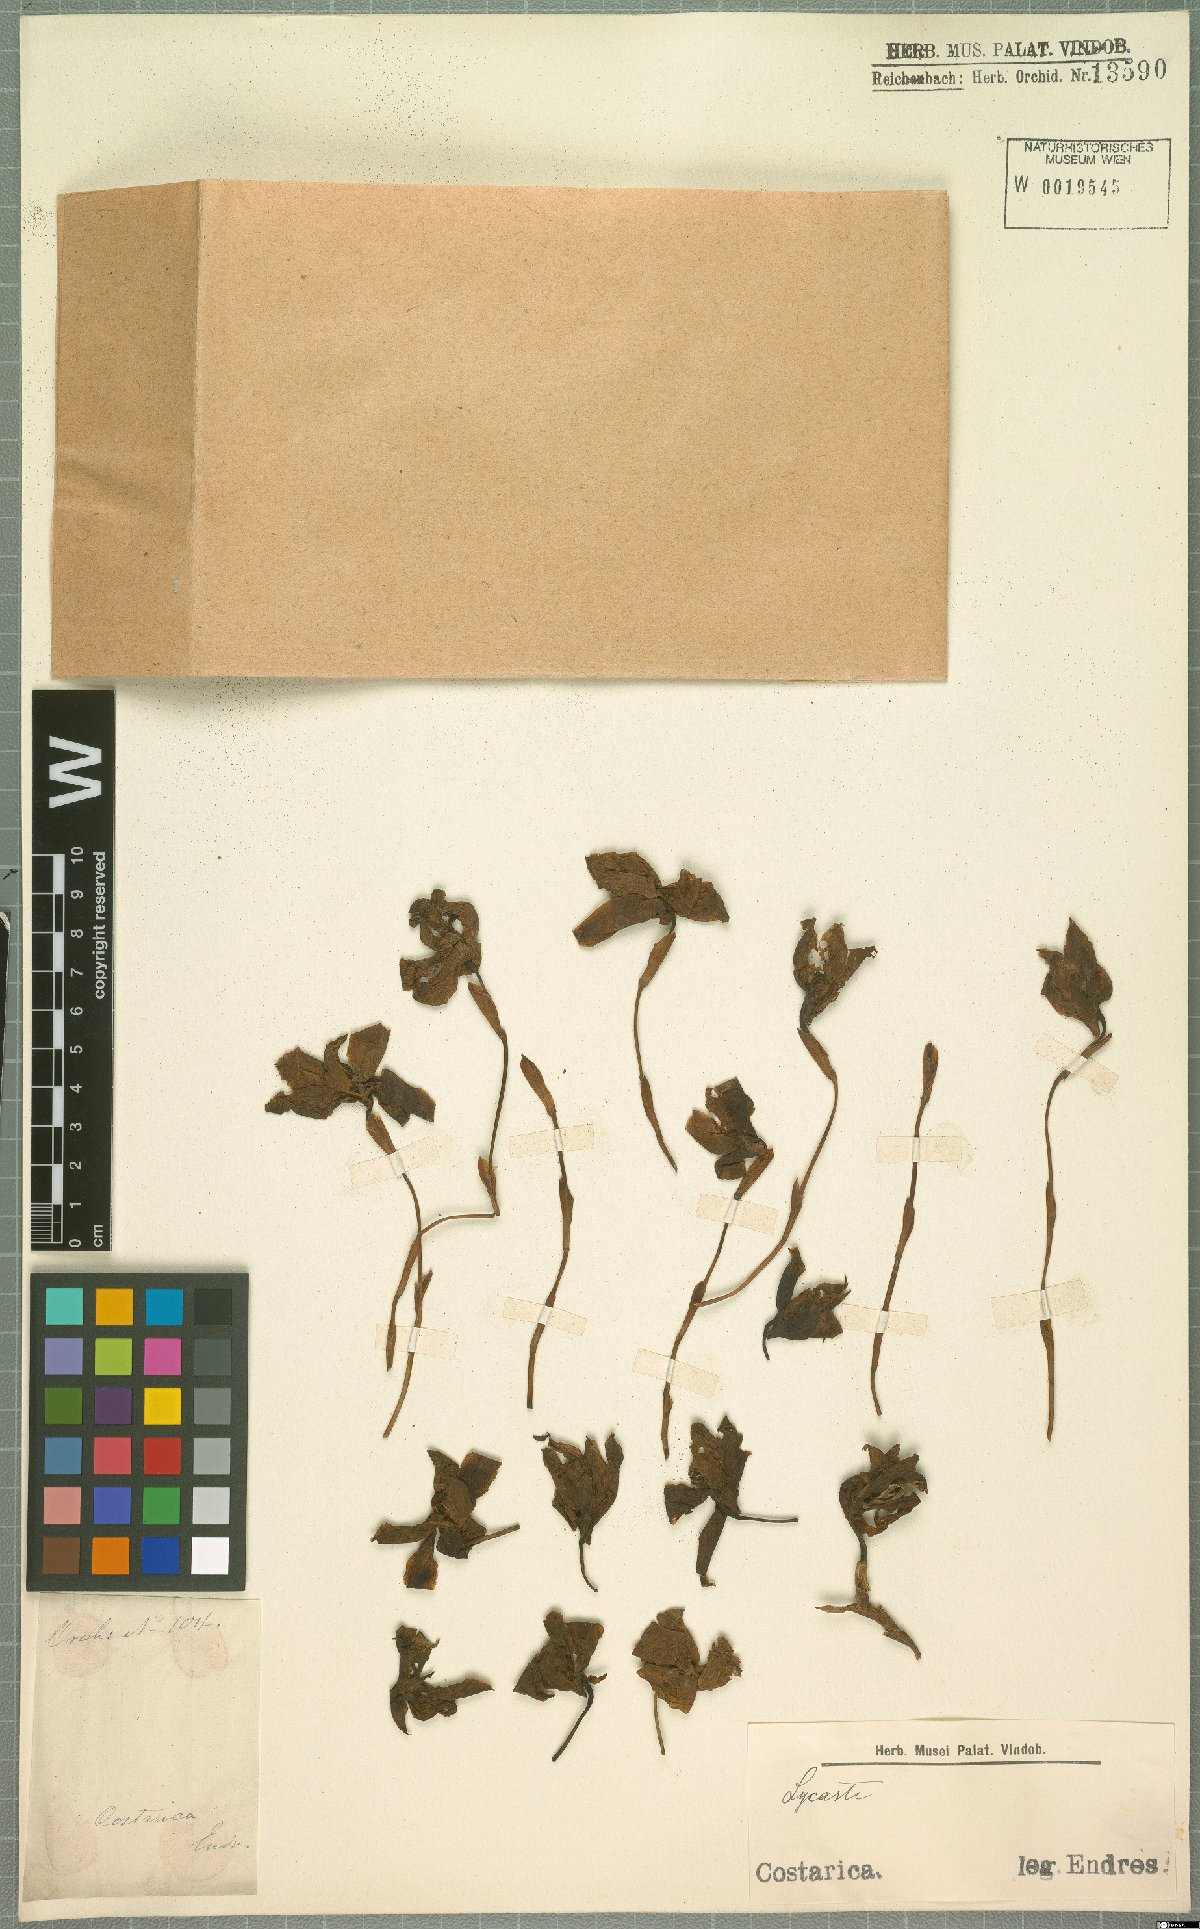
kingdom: Plantae
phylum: Tracheophyta
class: Liliopsida
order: Asparagales
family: Orchidaceae
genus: Lycaste
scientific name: Lycaste
